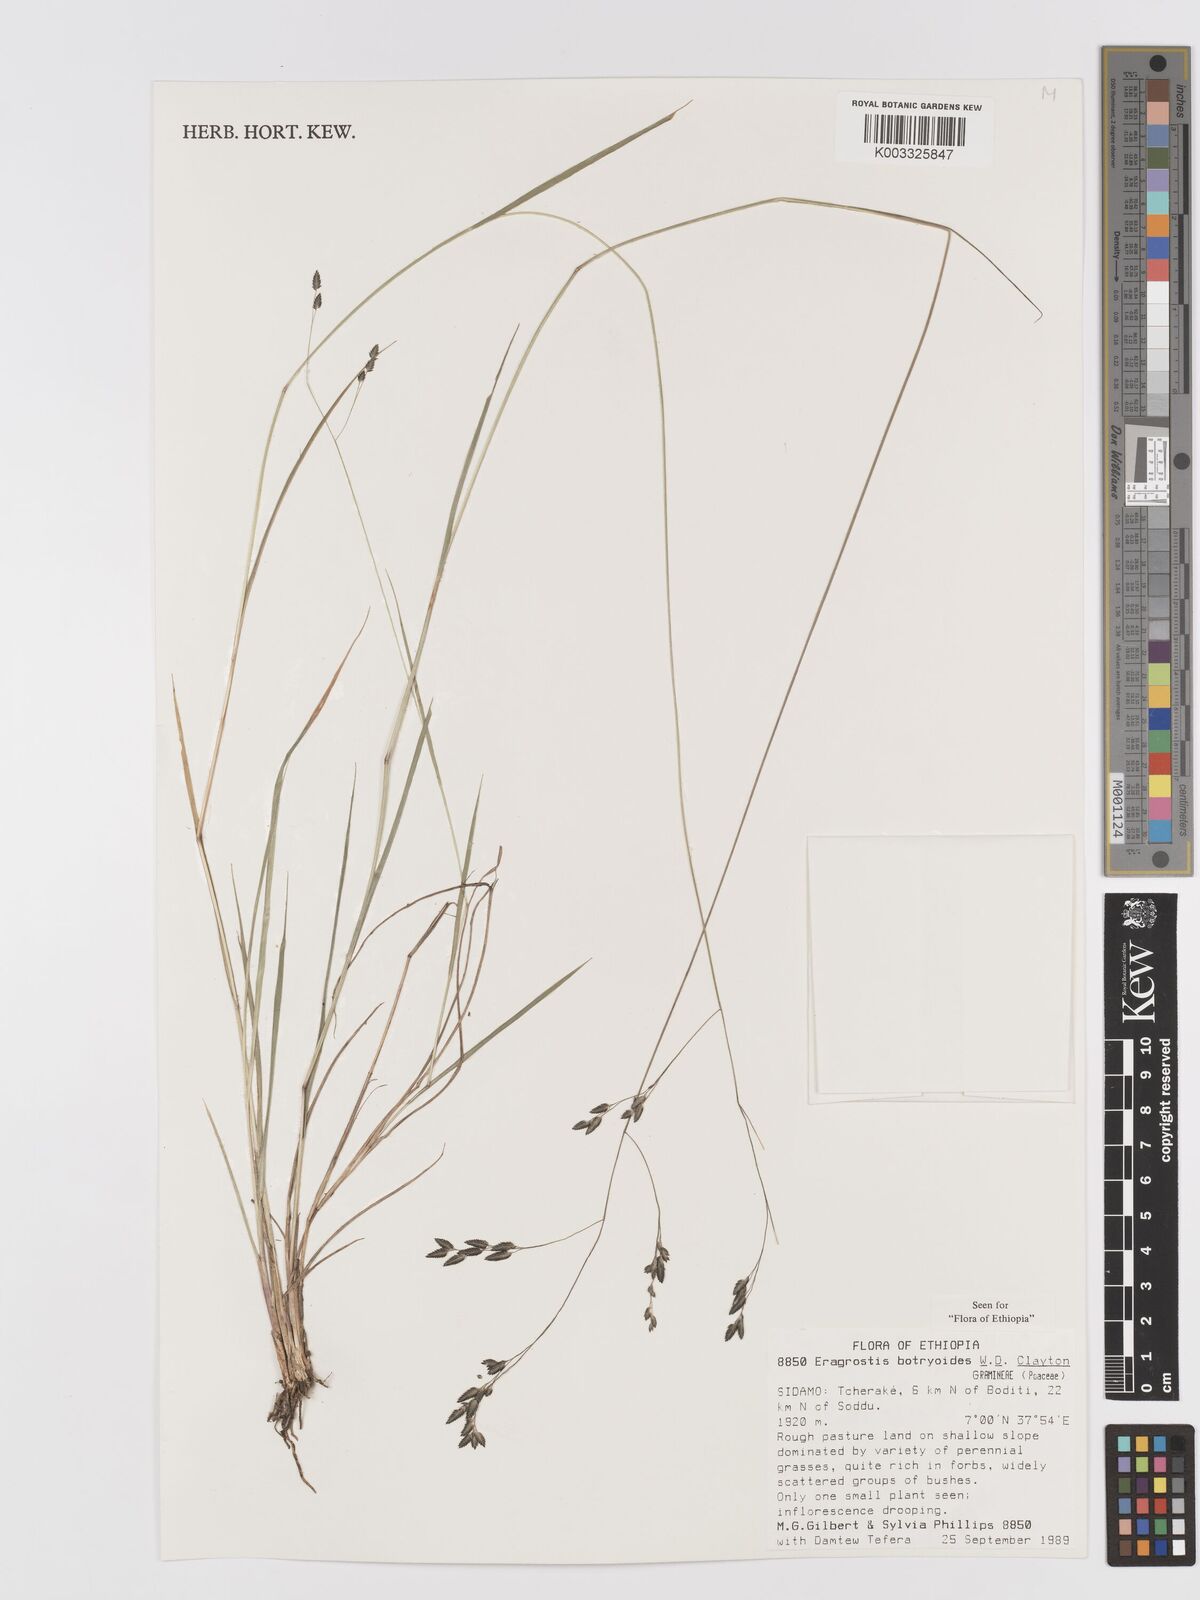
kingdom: Plantae
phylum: Tracheophyta
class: Liliopsida
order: Poales
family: Poaceae
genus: Eragrostis
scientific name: Eragrostis botryodes
